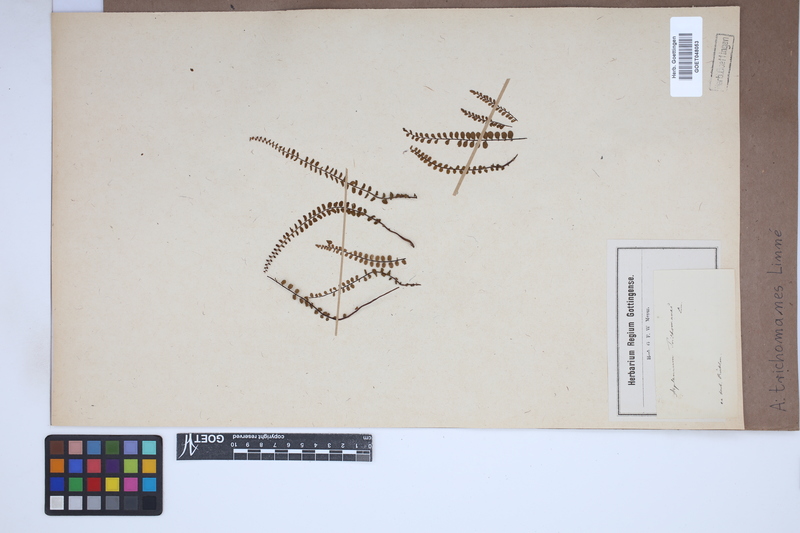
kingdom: Plantae
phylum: Tracheophyta
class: Polypodiopsida
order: Polypodiales
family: Aspleniaceae
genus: Asplenium
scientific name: Asplenium trichomanes
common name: Maidenhair spleenwort
